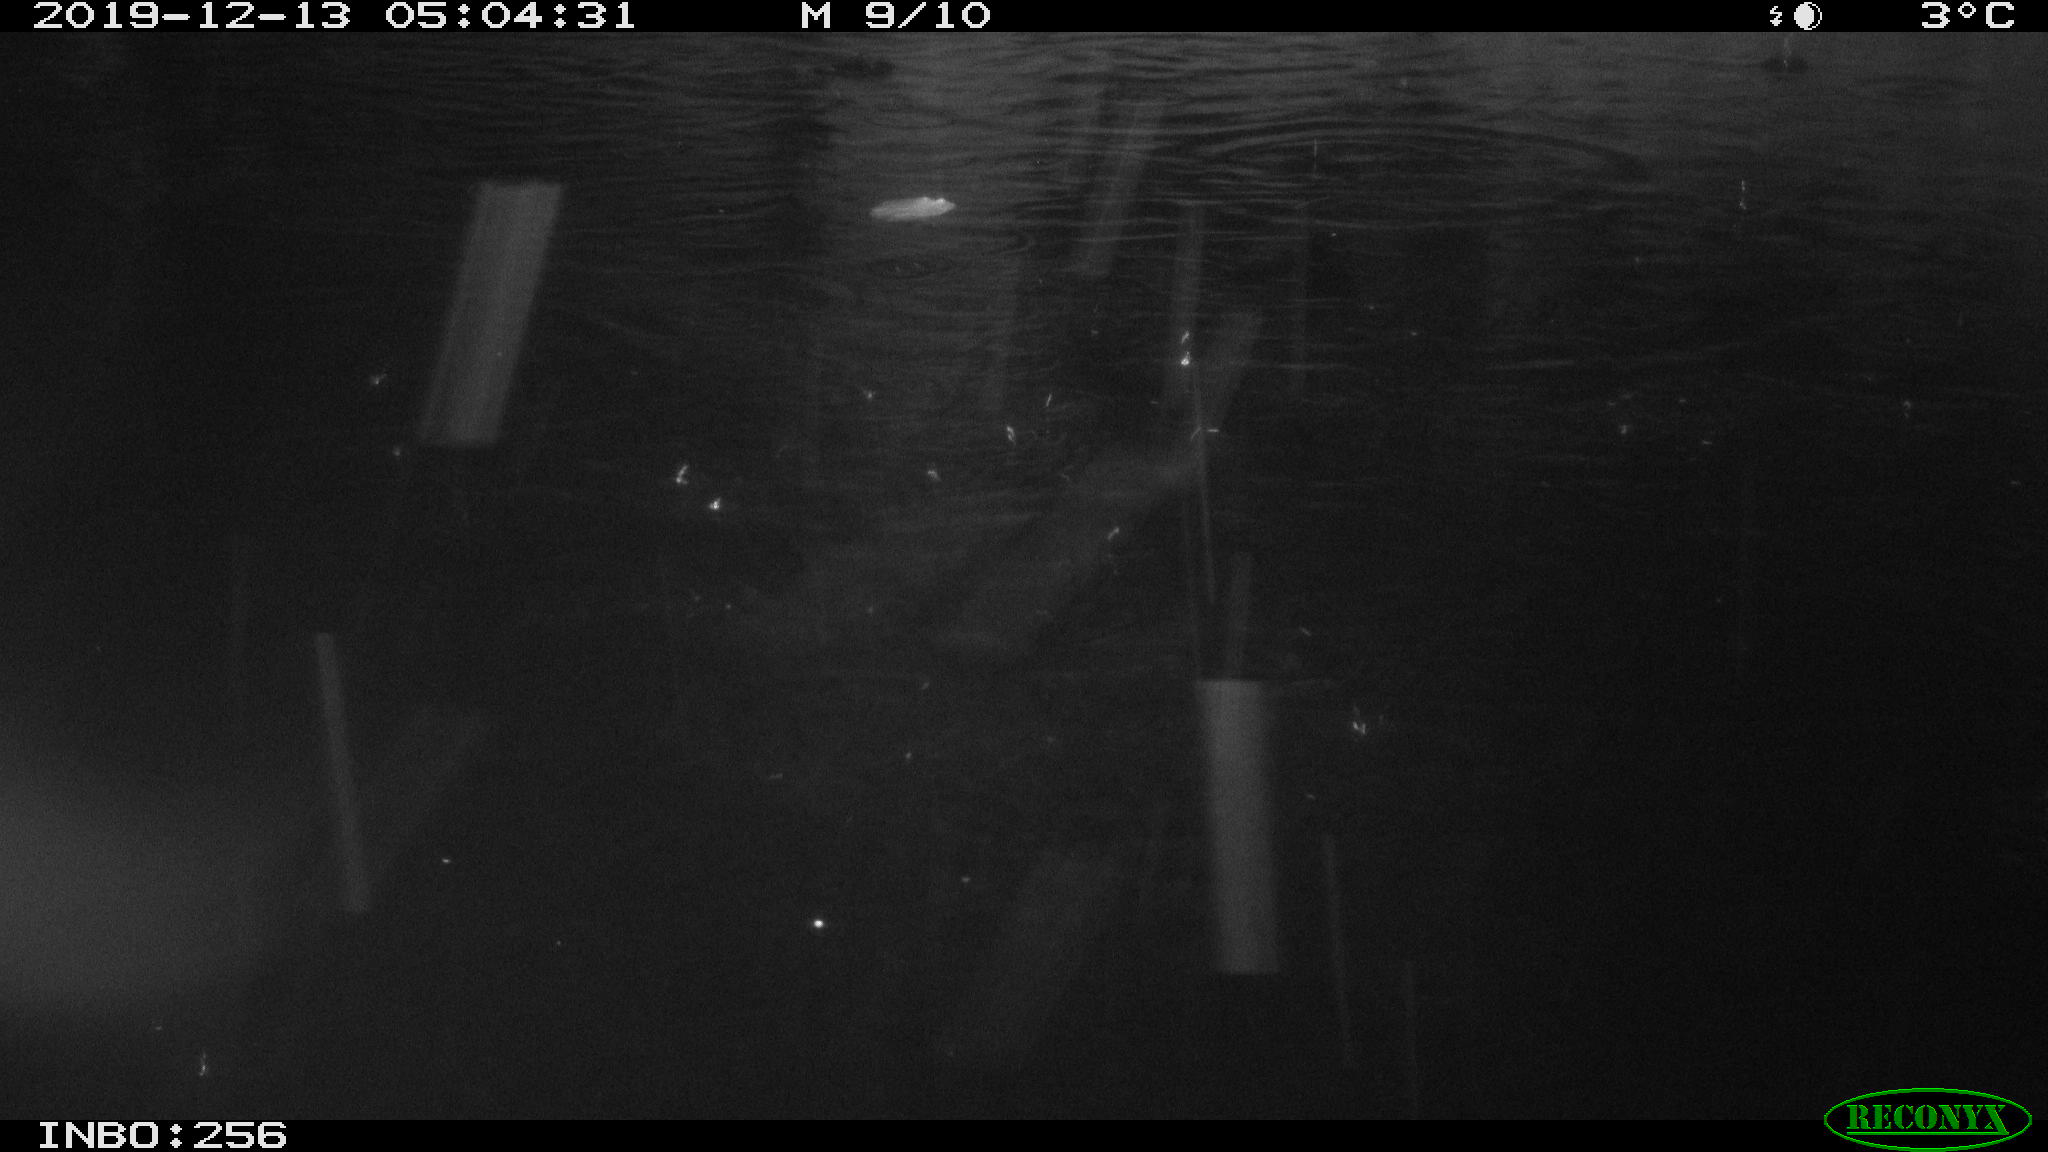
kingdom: Animalia
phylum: Chordata
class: Mammalia
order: Rodentia
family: Cricetidae
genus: Arvicola
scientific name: Arvicola amphibius
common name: European water vole
